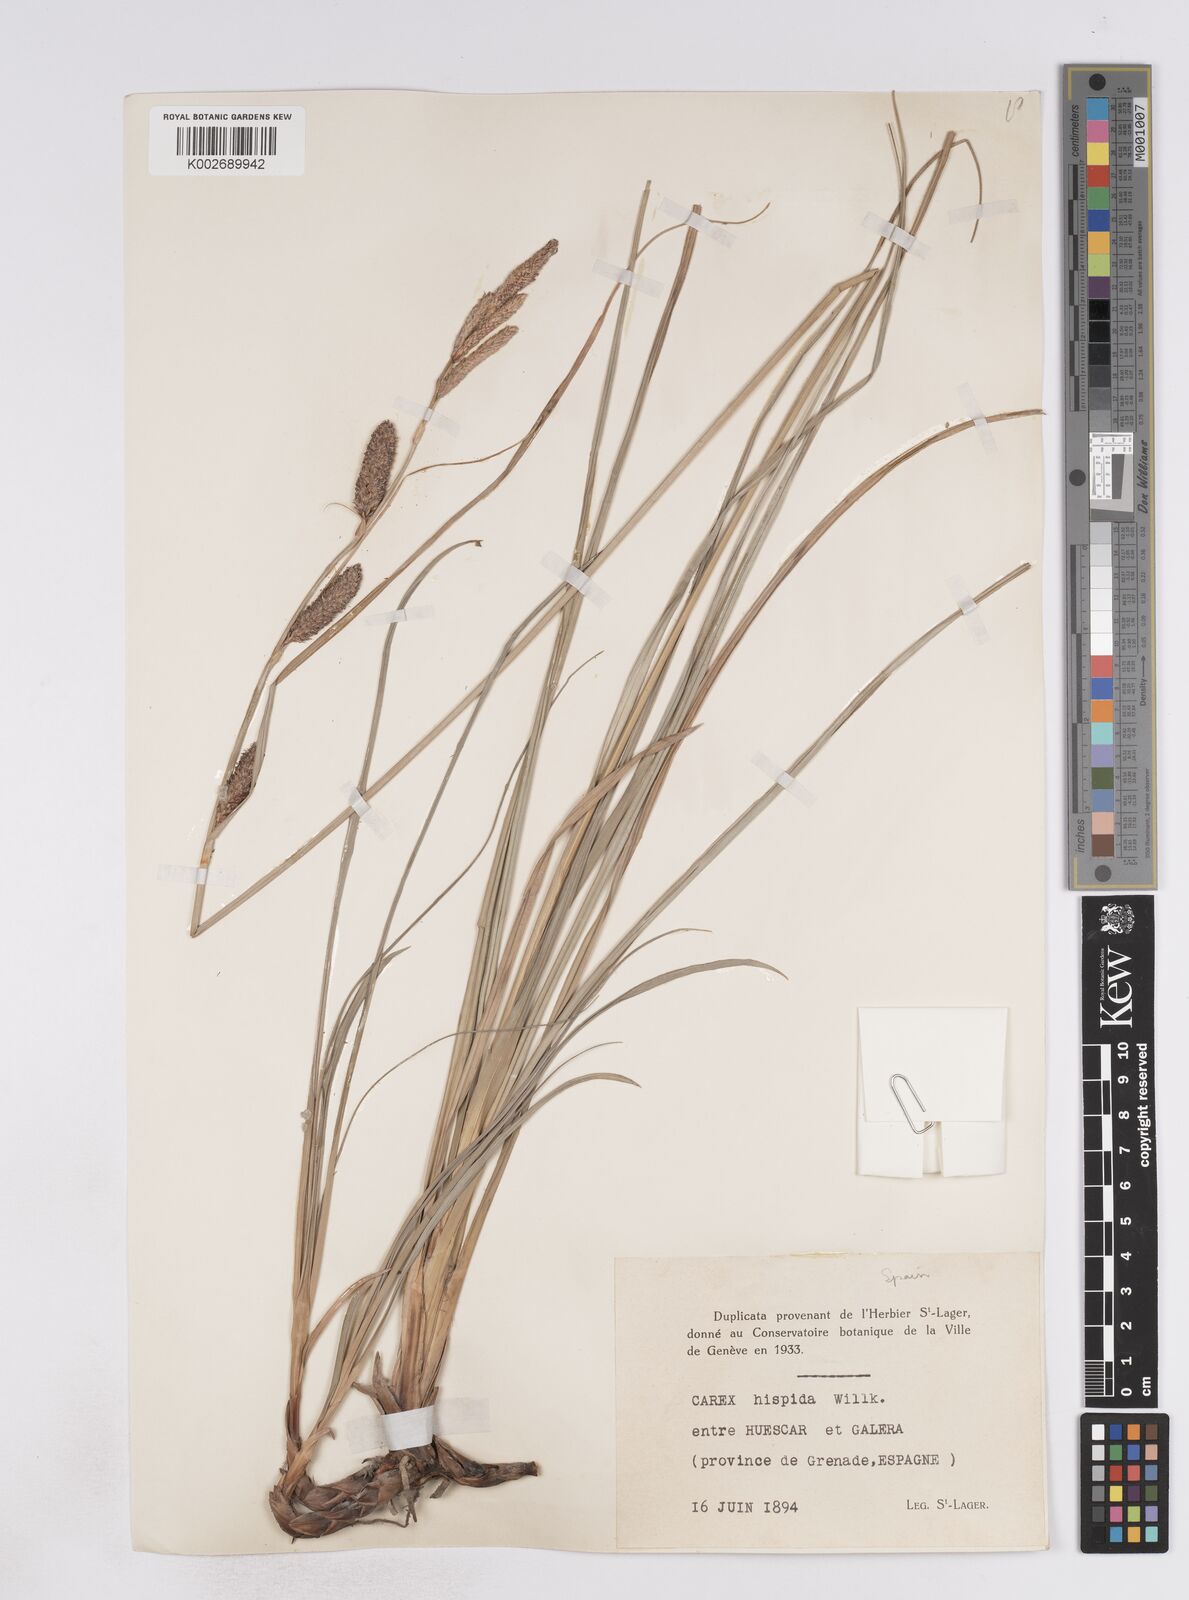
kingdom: Plantae
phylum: Tracheophyta
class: Liliopsida
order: Poales
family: Cyperaceae
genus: Carex
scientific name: Carex hispida
